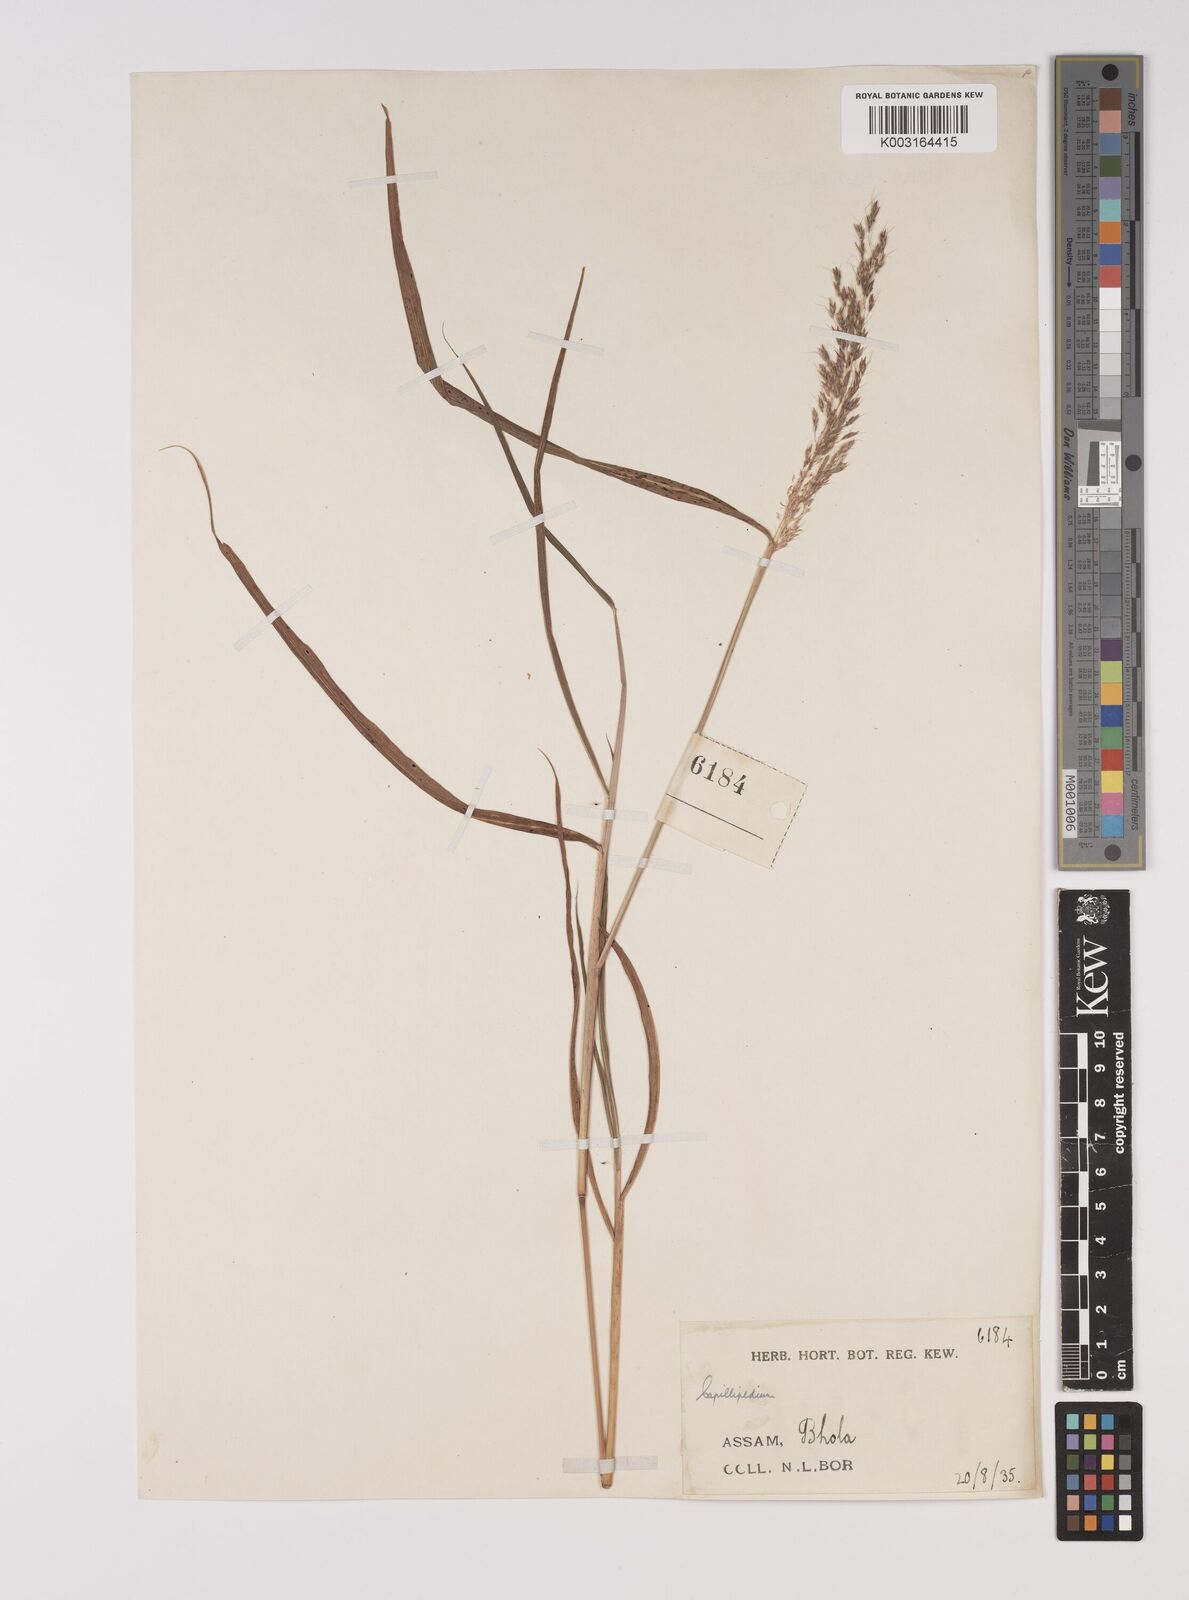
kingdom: Plantae
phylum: Tracheophyta
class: Liliopsida
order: Poales
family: Poaceae
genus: Capillipedium
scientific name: Capillipedium assimile
